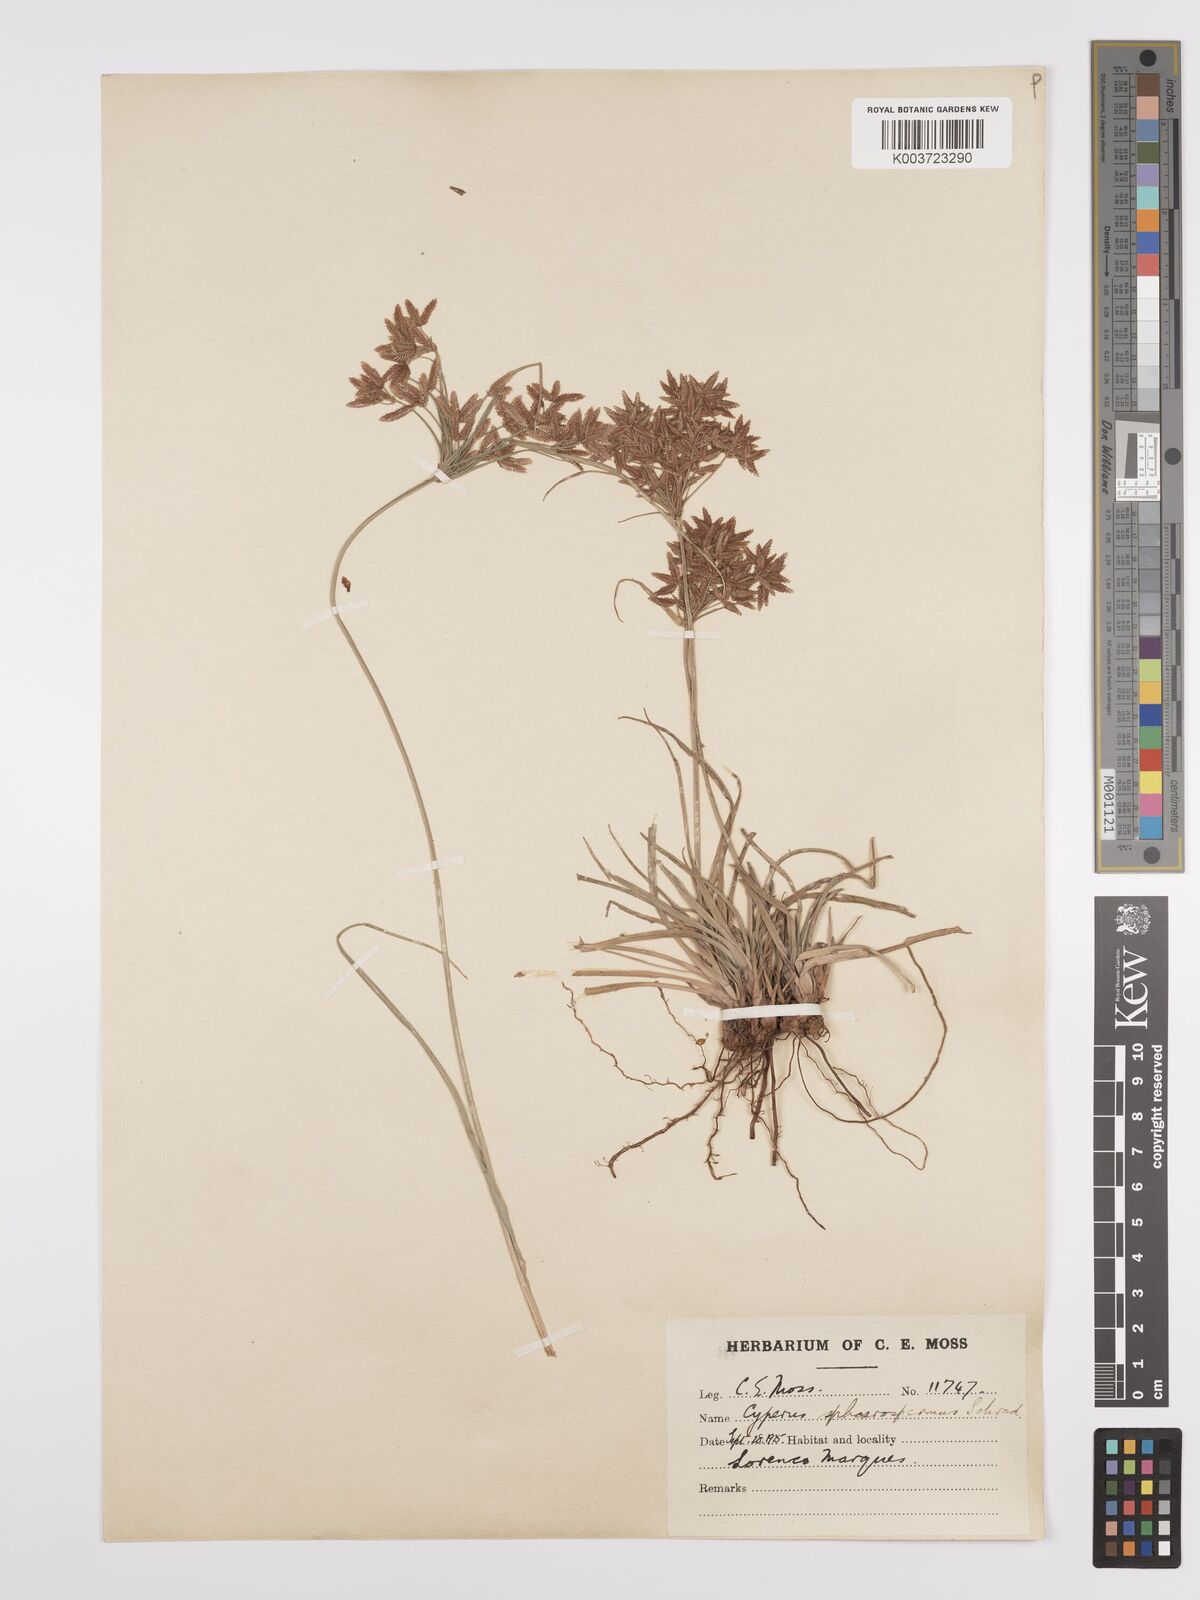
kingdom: Plantae
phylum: Tracheophyta
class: Liliopsida
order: Poales
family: Cyperaceae
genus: Cyperus
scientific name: Cyperus denudatus
